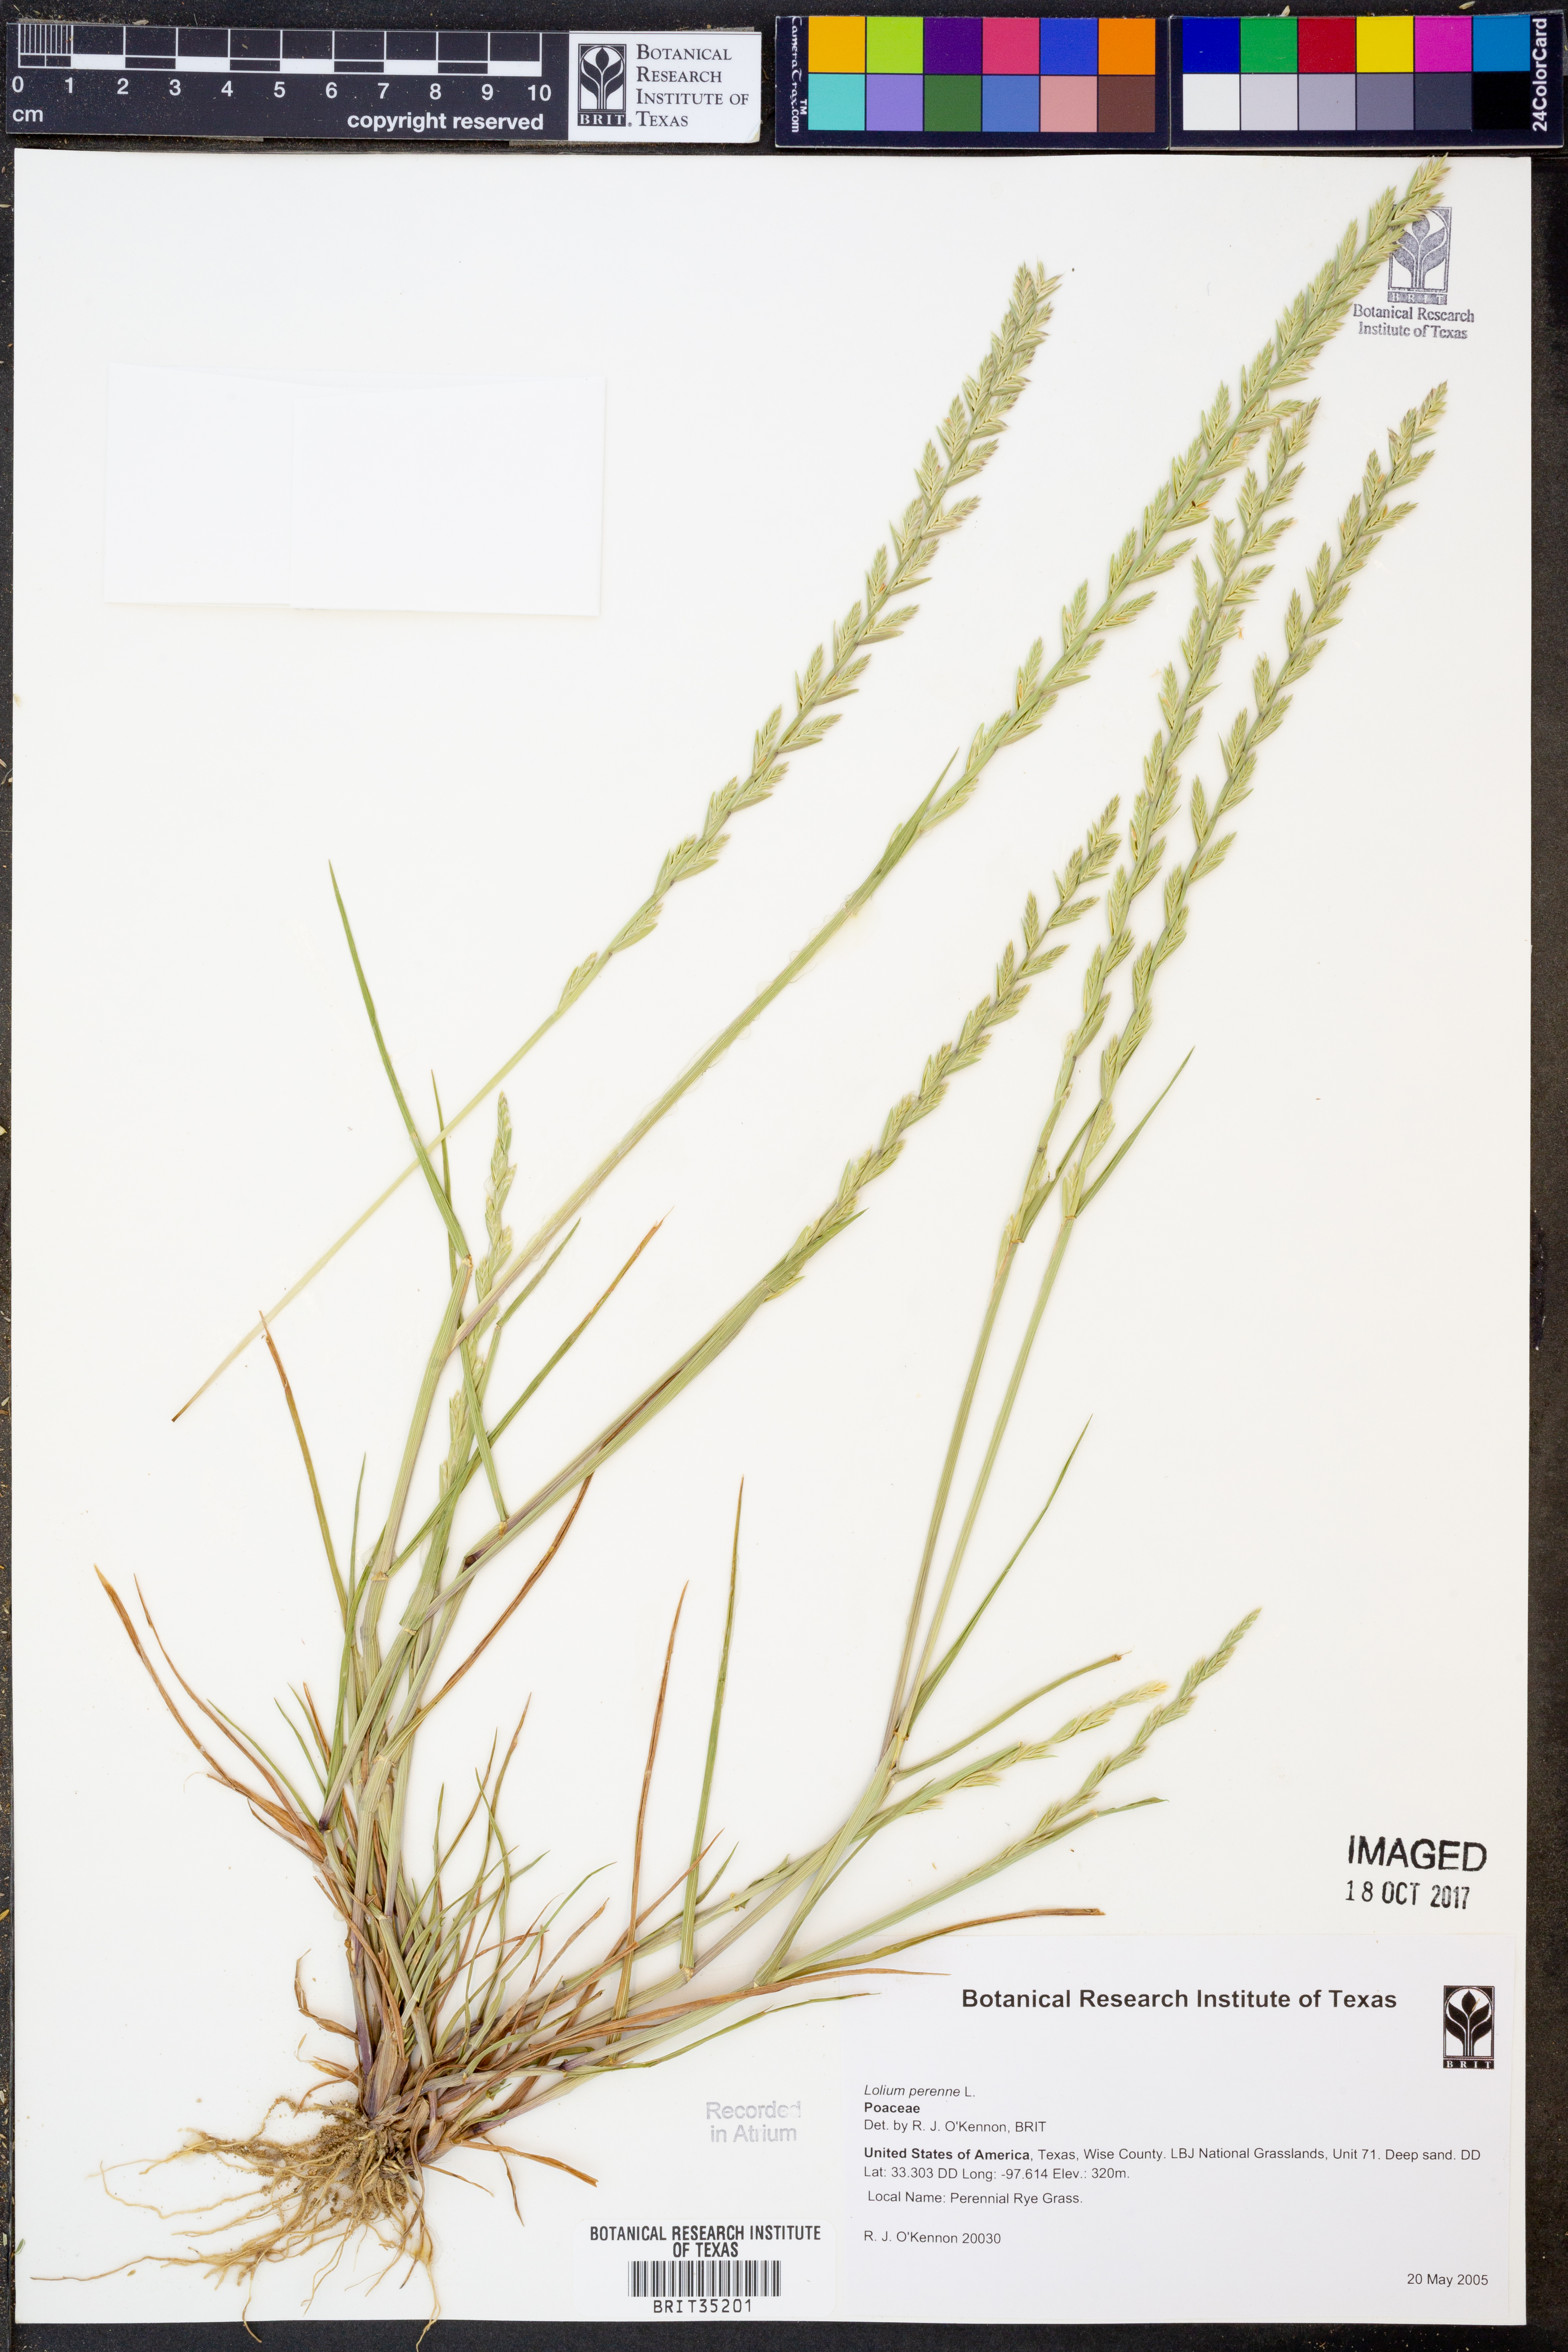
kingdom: Plantae
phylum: Tracheophyta
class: Liliopsida
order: Poales
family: Poaceae
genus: Lolium
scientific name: Lolium perenne
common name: Perennial ryegrass
